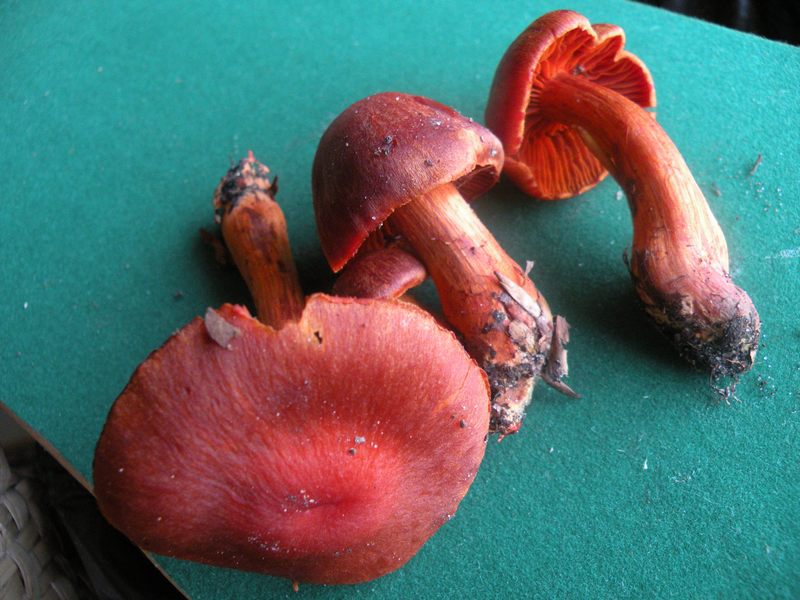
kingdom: Fungi
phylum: Basidiomycota
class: Agaricomycetes
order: Agaricales
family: Cortinariaceae
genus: Cortinarius
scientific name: Cortinarius cinnabarinus
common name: cinnober-slørhat
